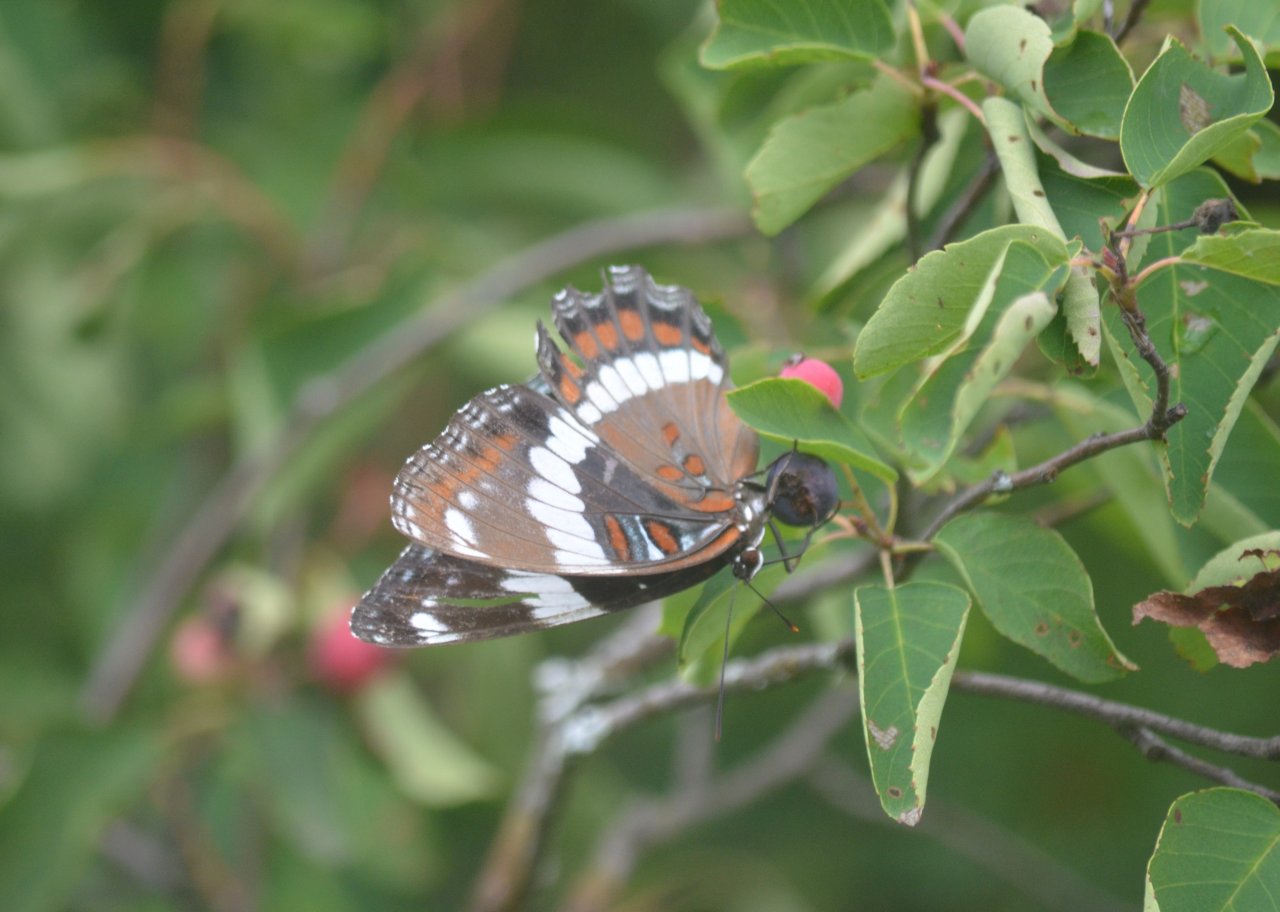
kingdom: Animalia
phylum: Arthropoda
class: Insecta
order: Lepidoptera
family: Nymphalidae
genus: Limenitis
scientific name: Limenitis arthemis
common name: Red-spotted Admiral
